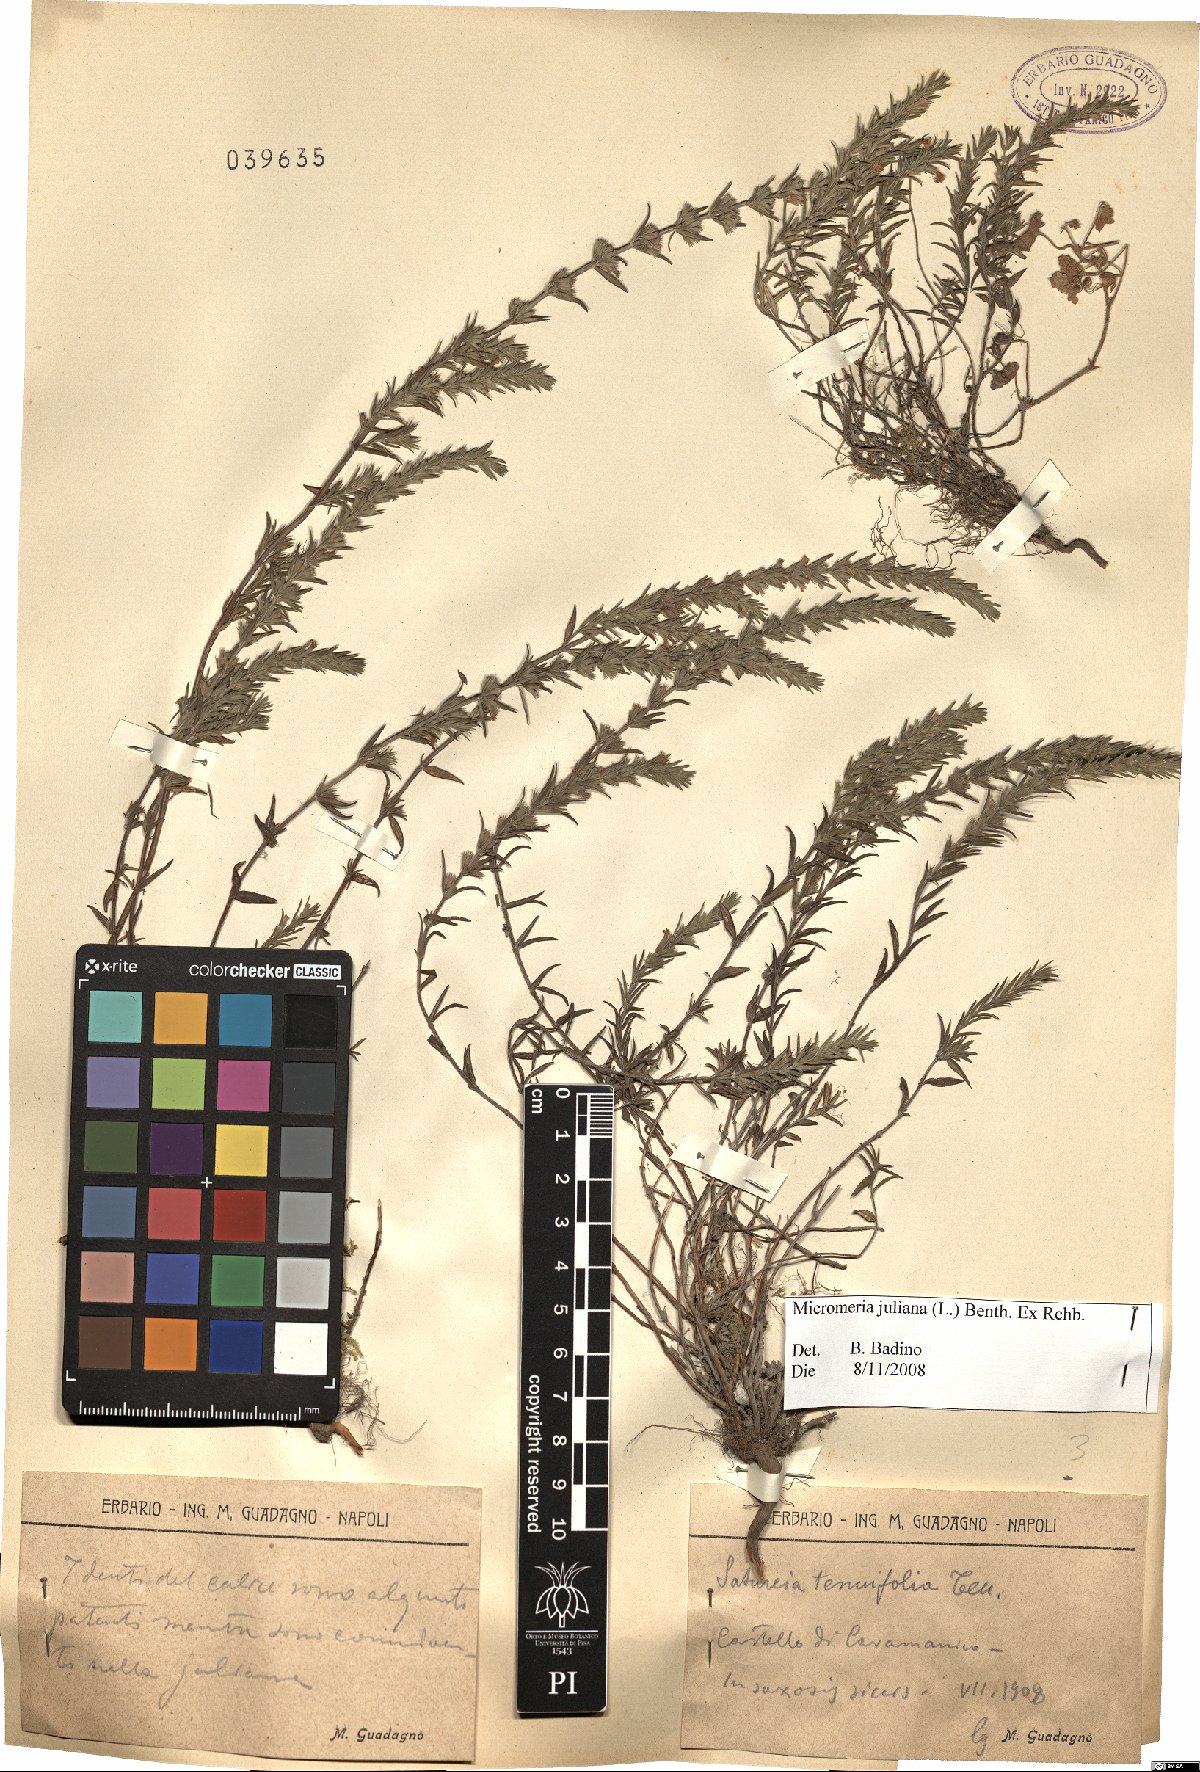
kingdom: Plantae
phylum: Tracheophyta
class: Magnoliopsida
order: Lamiales
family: Lamiaceae
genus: Micromeria
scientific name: Micromeria juliana
